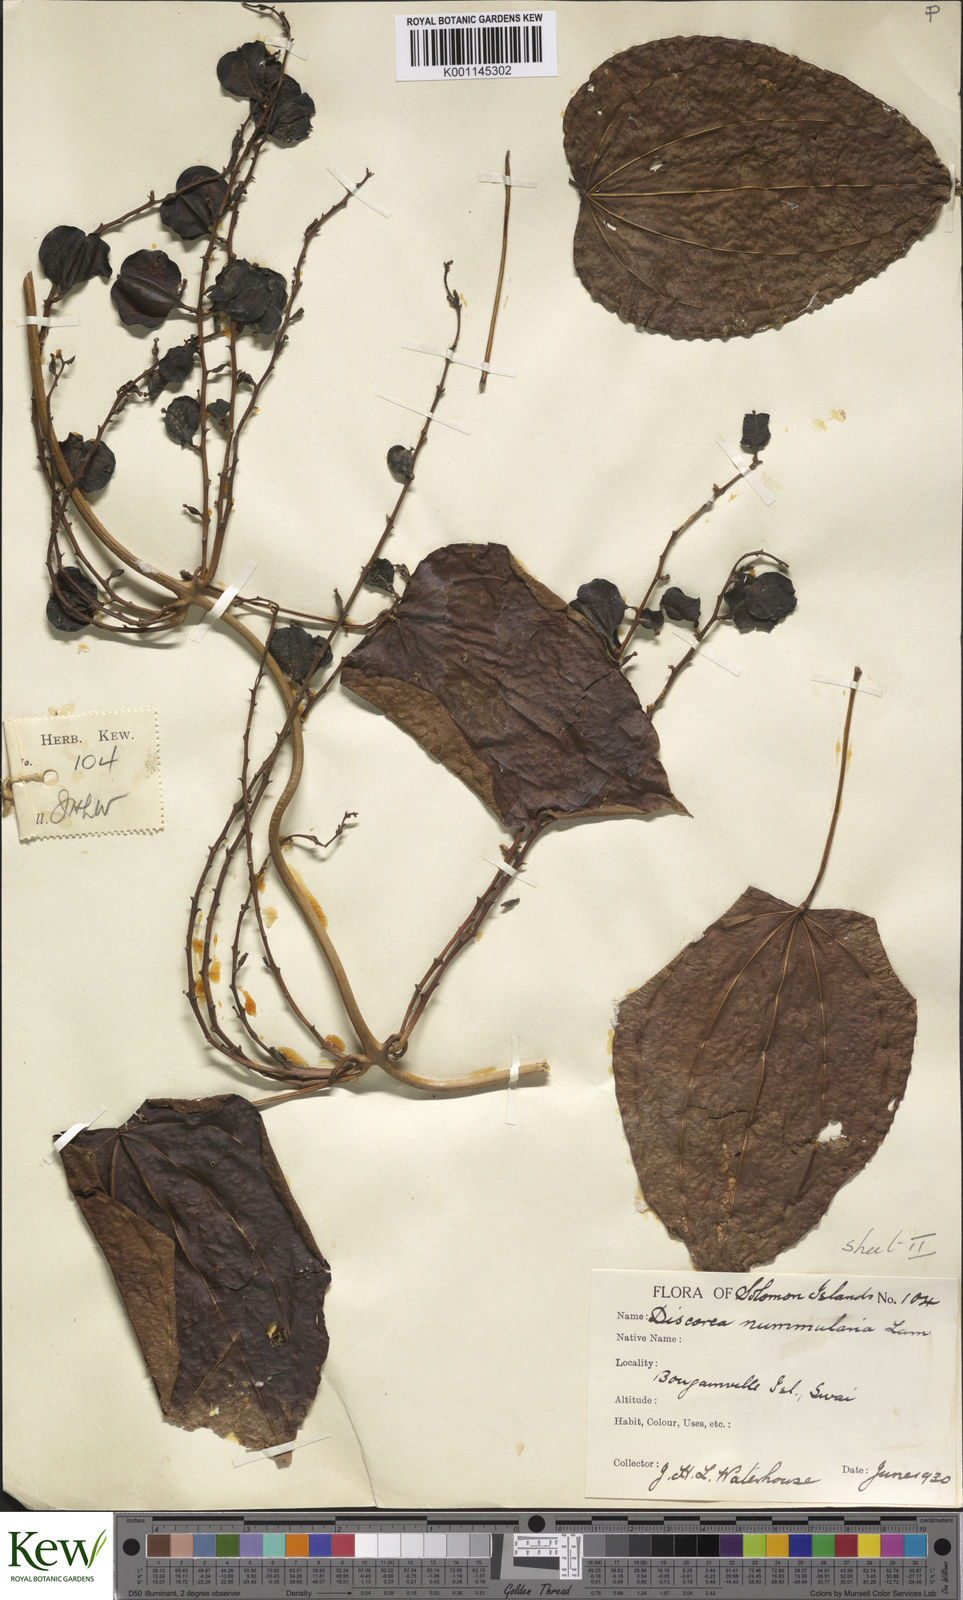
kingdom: Plantae
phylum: Tracheophyta
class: Liliopsida
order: Dioscoreales
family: Dioscoreaceae
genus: Dioscorea
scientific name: Dioscorea nummularia
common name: Pacific yam
